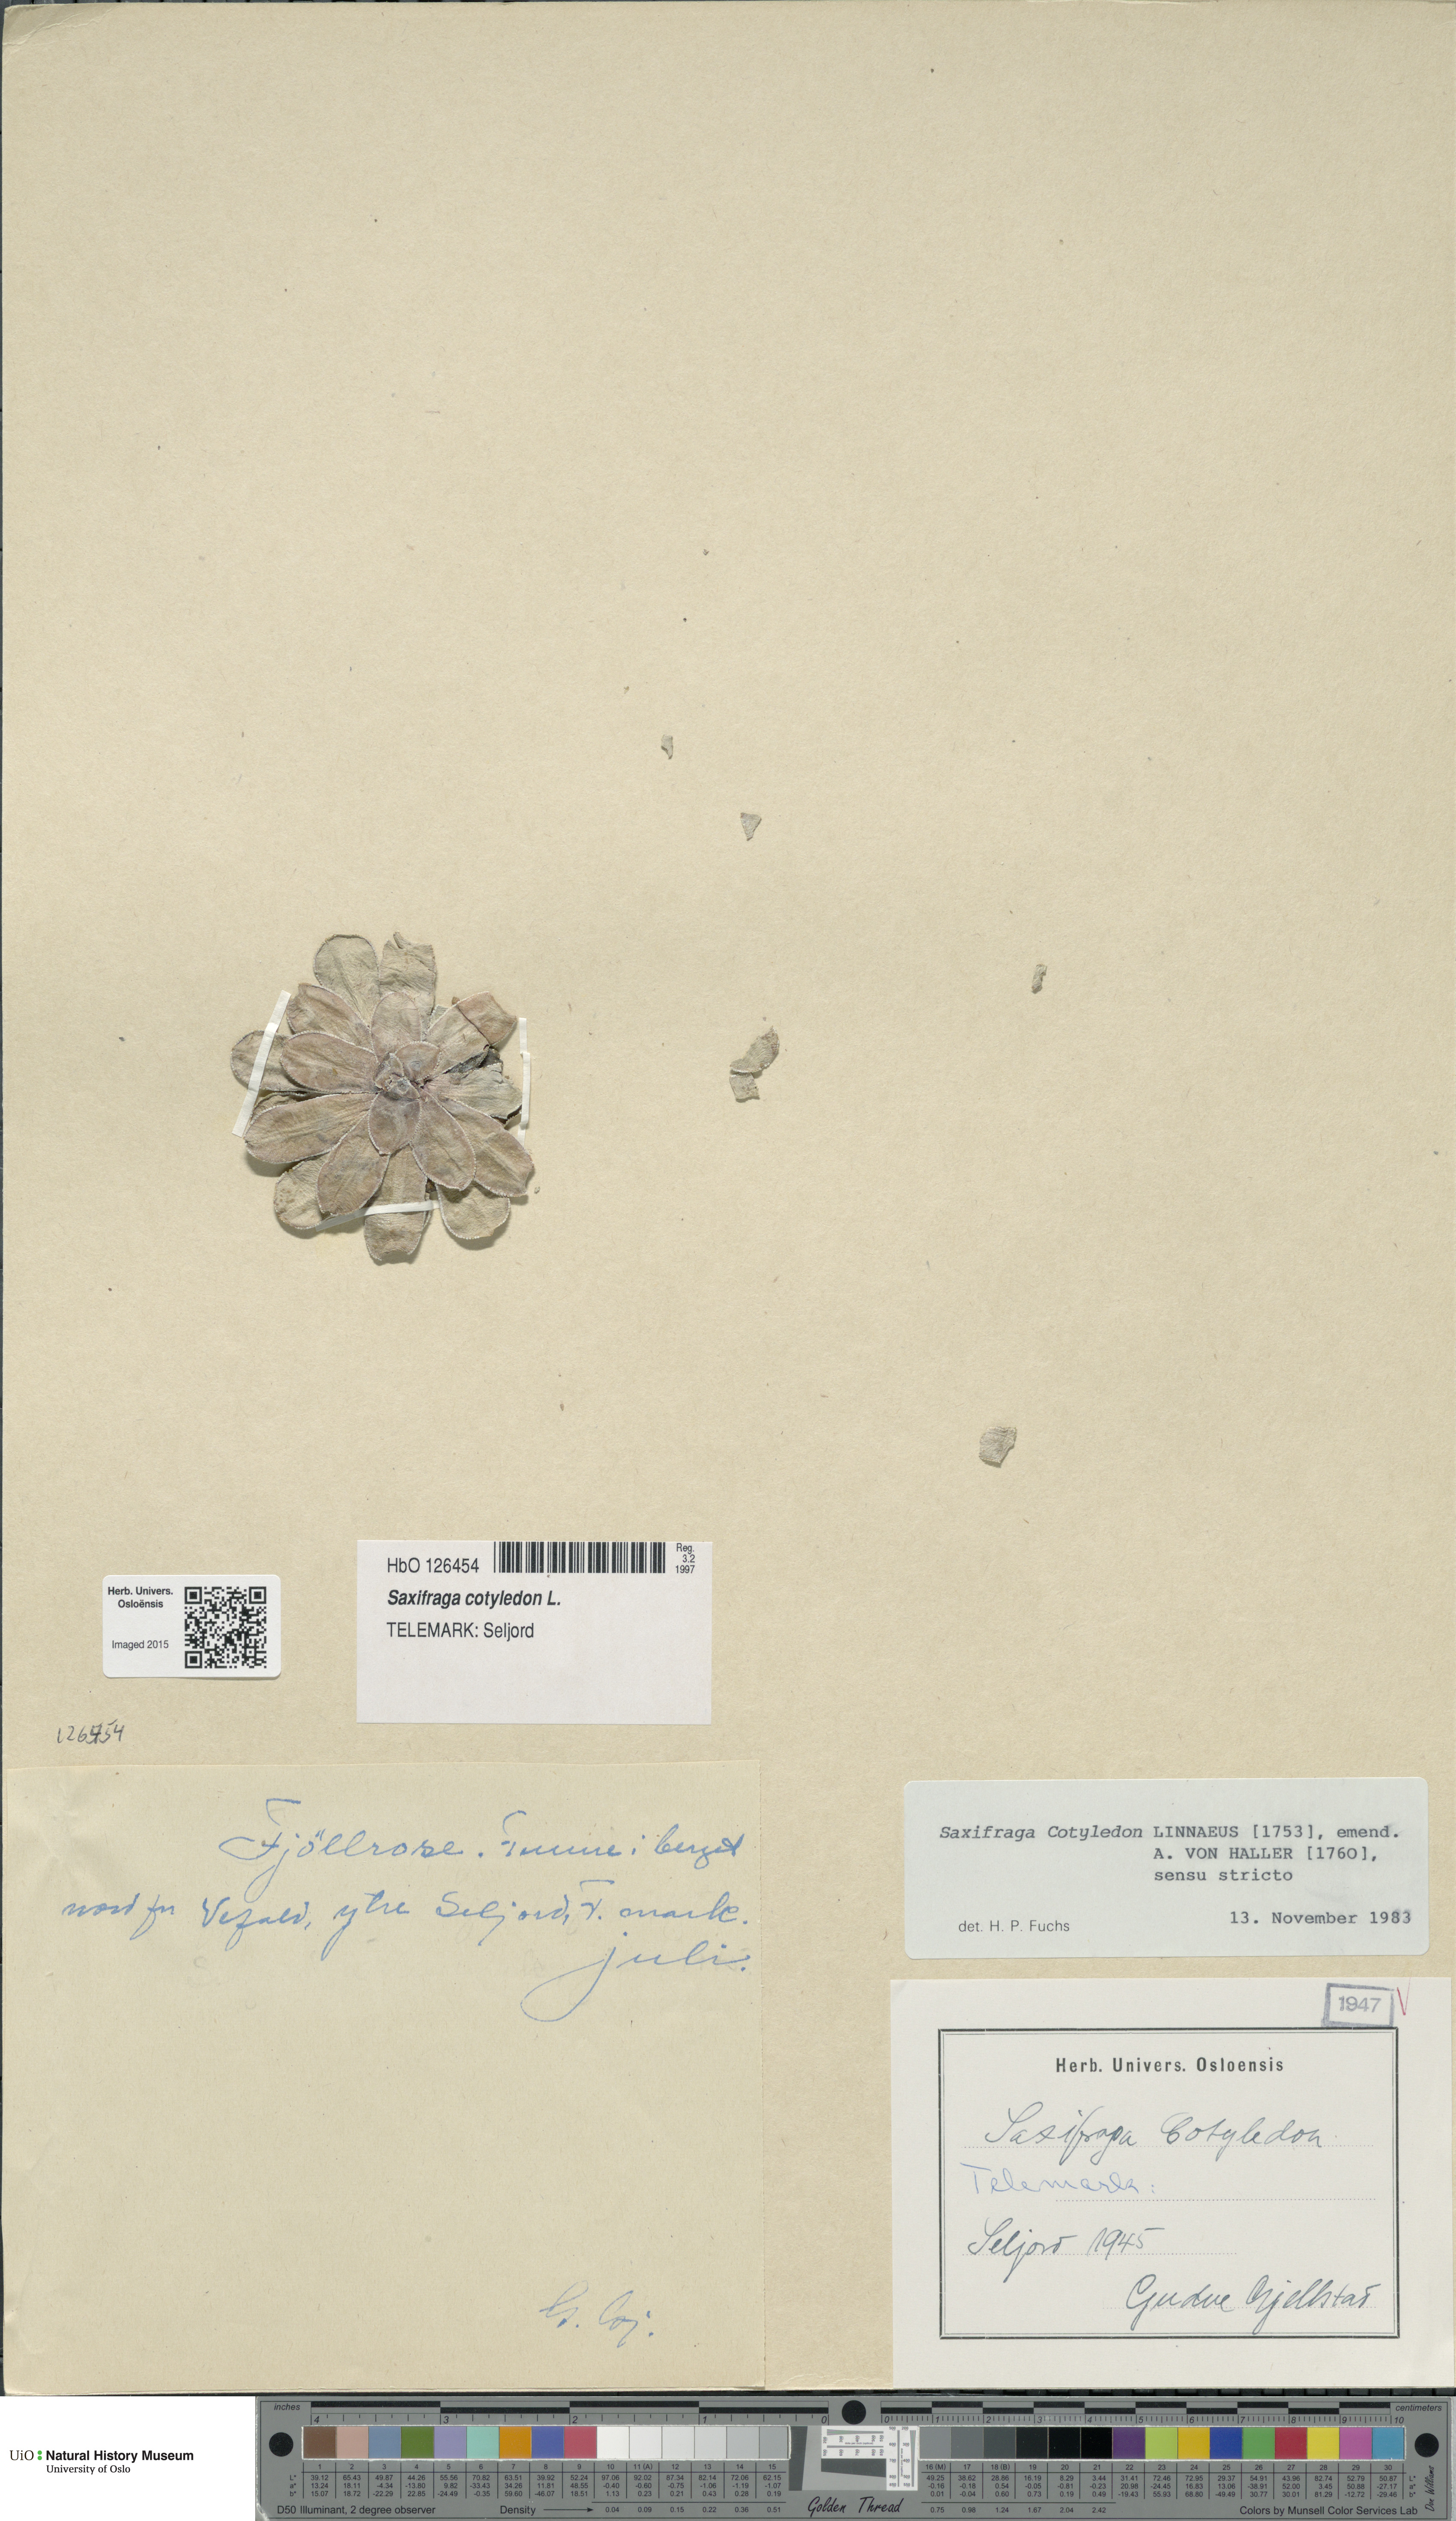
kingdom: Plantae
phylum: Tracheophyta
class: Magnoliopsida
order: Saxifragales
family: Saxifragaceae
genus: Saxifraga
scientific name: Saxifraga cotyledon
